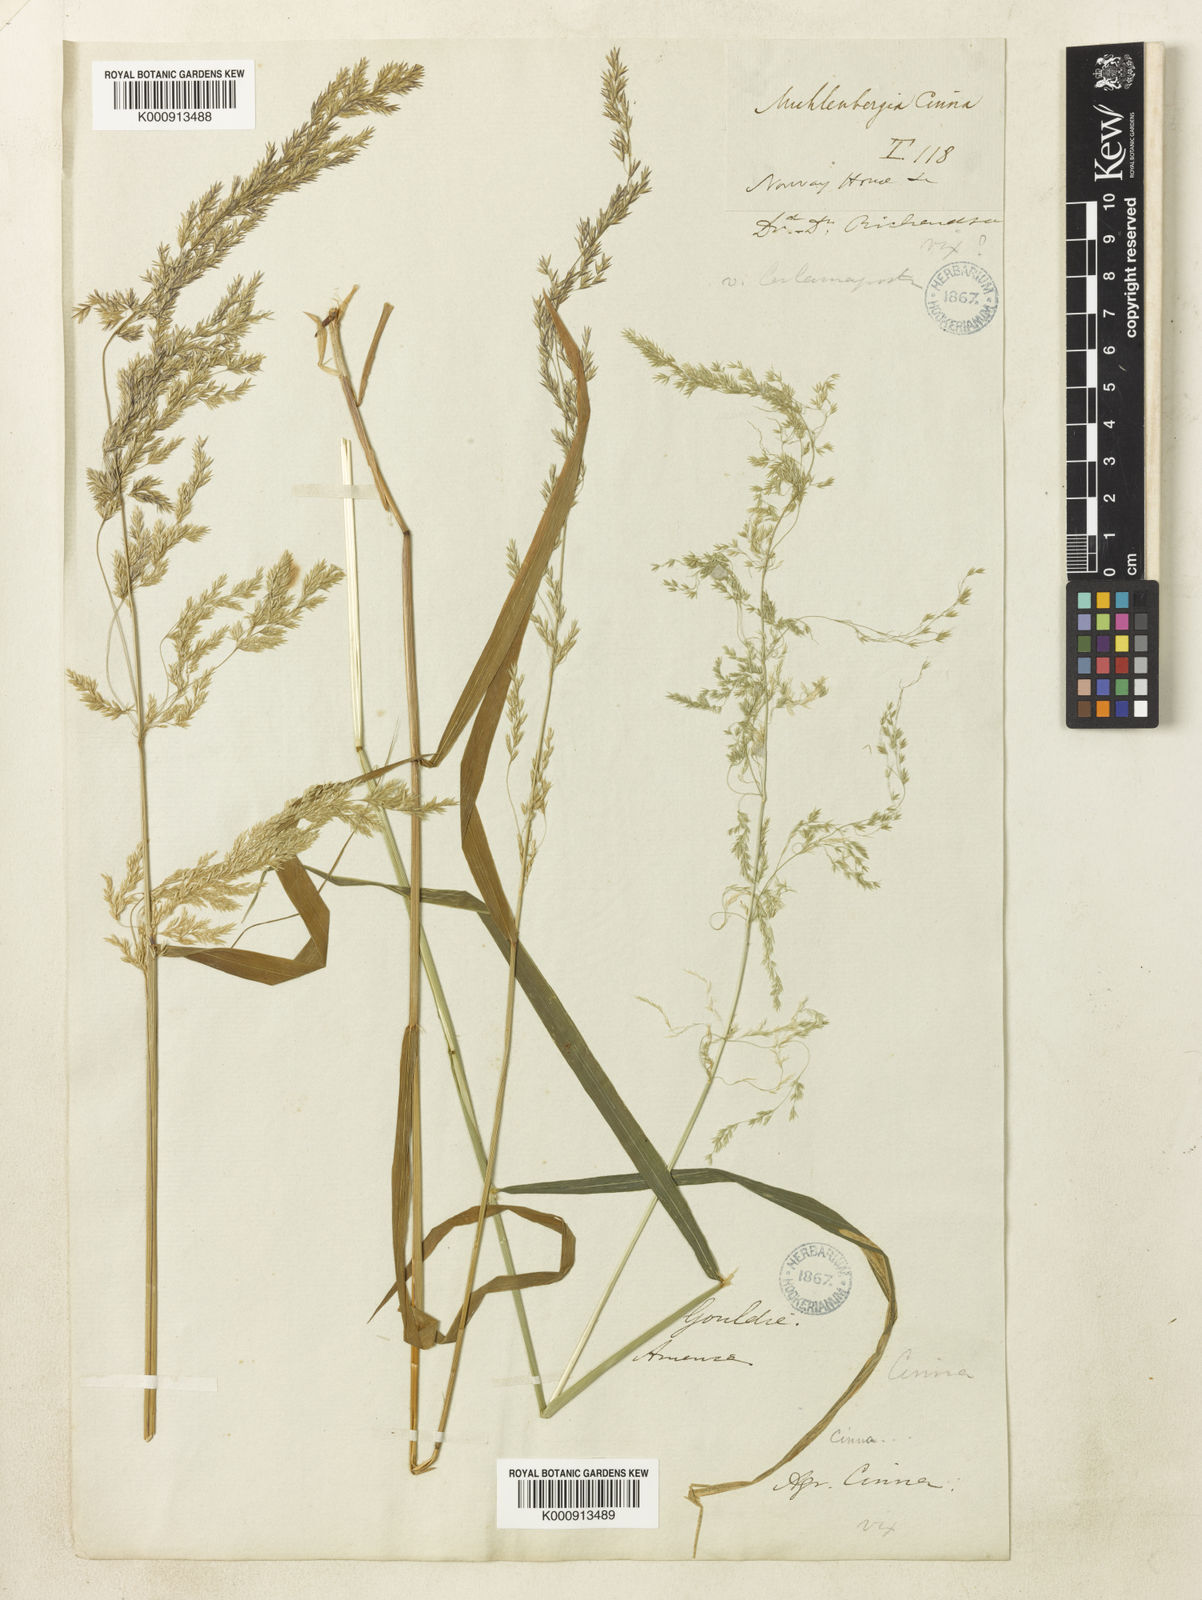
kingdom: Plantae
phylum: Tracheophyta
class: Liliopsida
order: Poales
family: Poaceae
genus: Cinna
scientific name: Cinna latifolia
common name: Drooping woodreed
